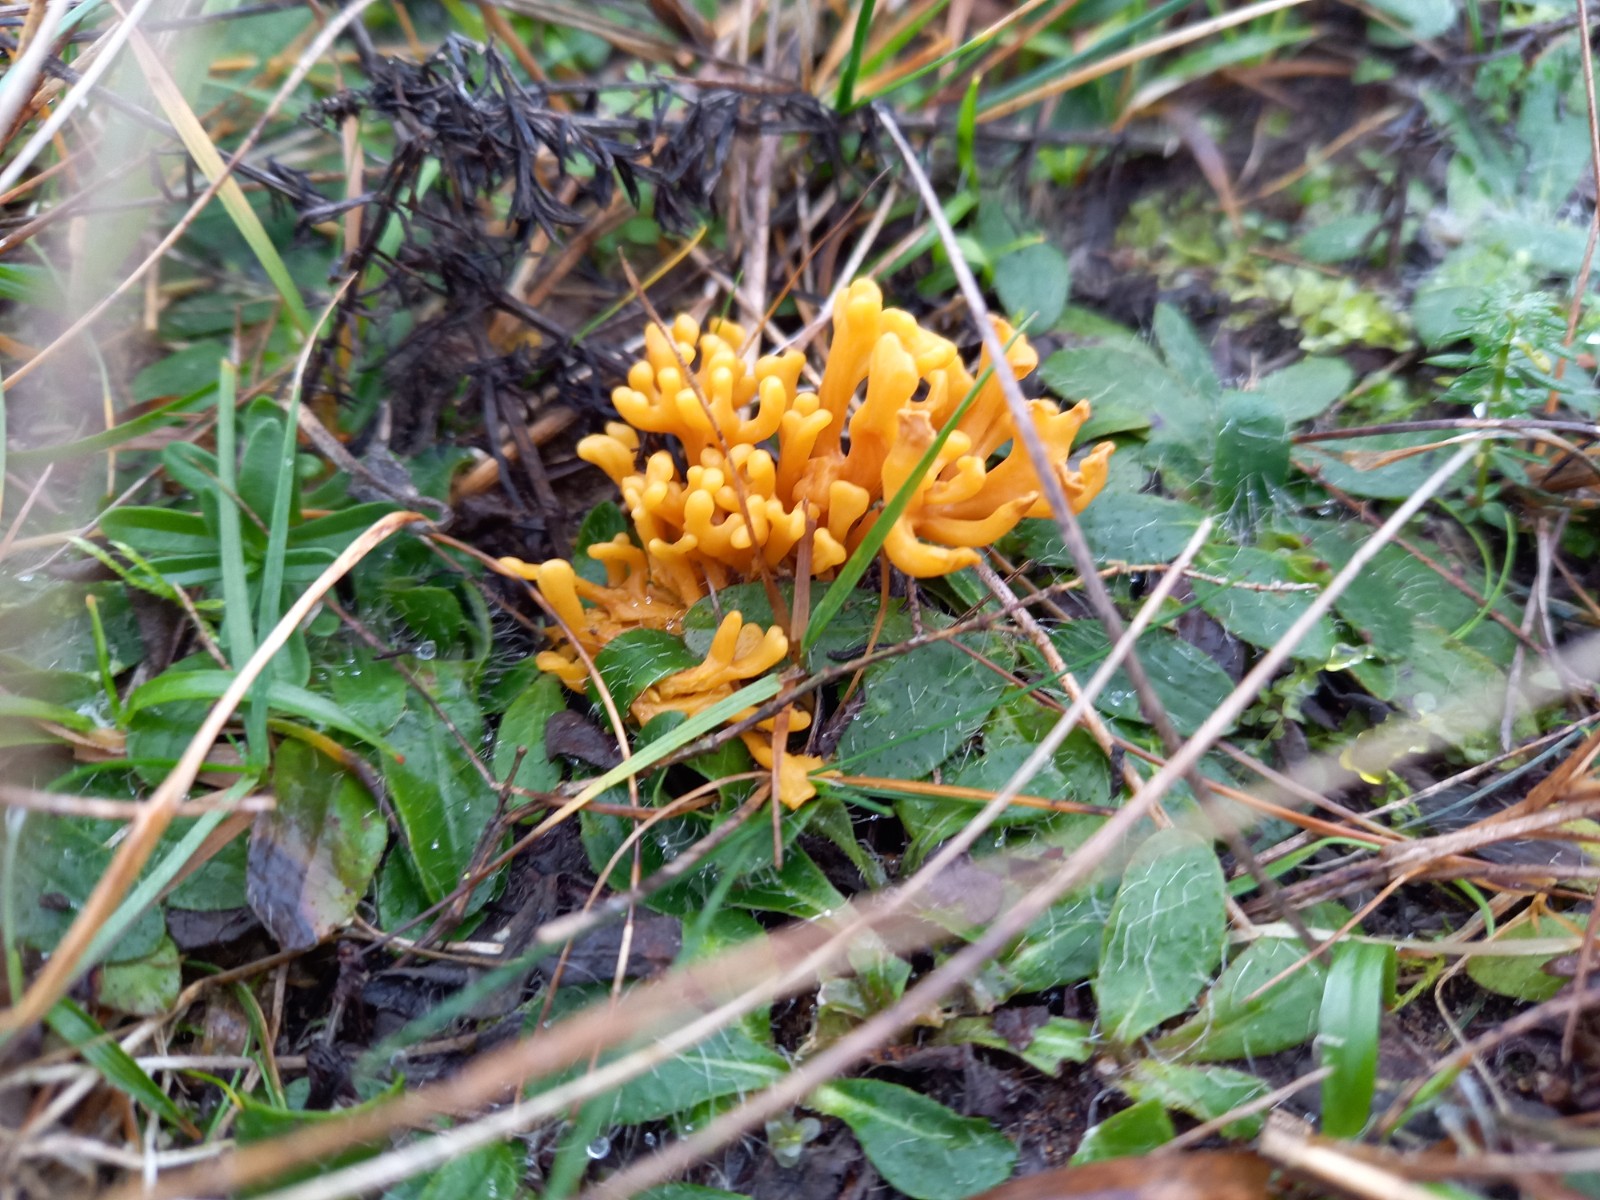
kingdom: Fungi
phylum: Basidiomycota
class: Agaricomycetes
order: Agaricales
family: Clavariaceae
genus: Clavulinopsis
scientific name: Clavulinopsis corniculata
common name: eng-køllesvamp
